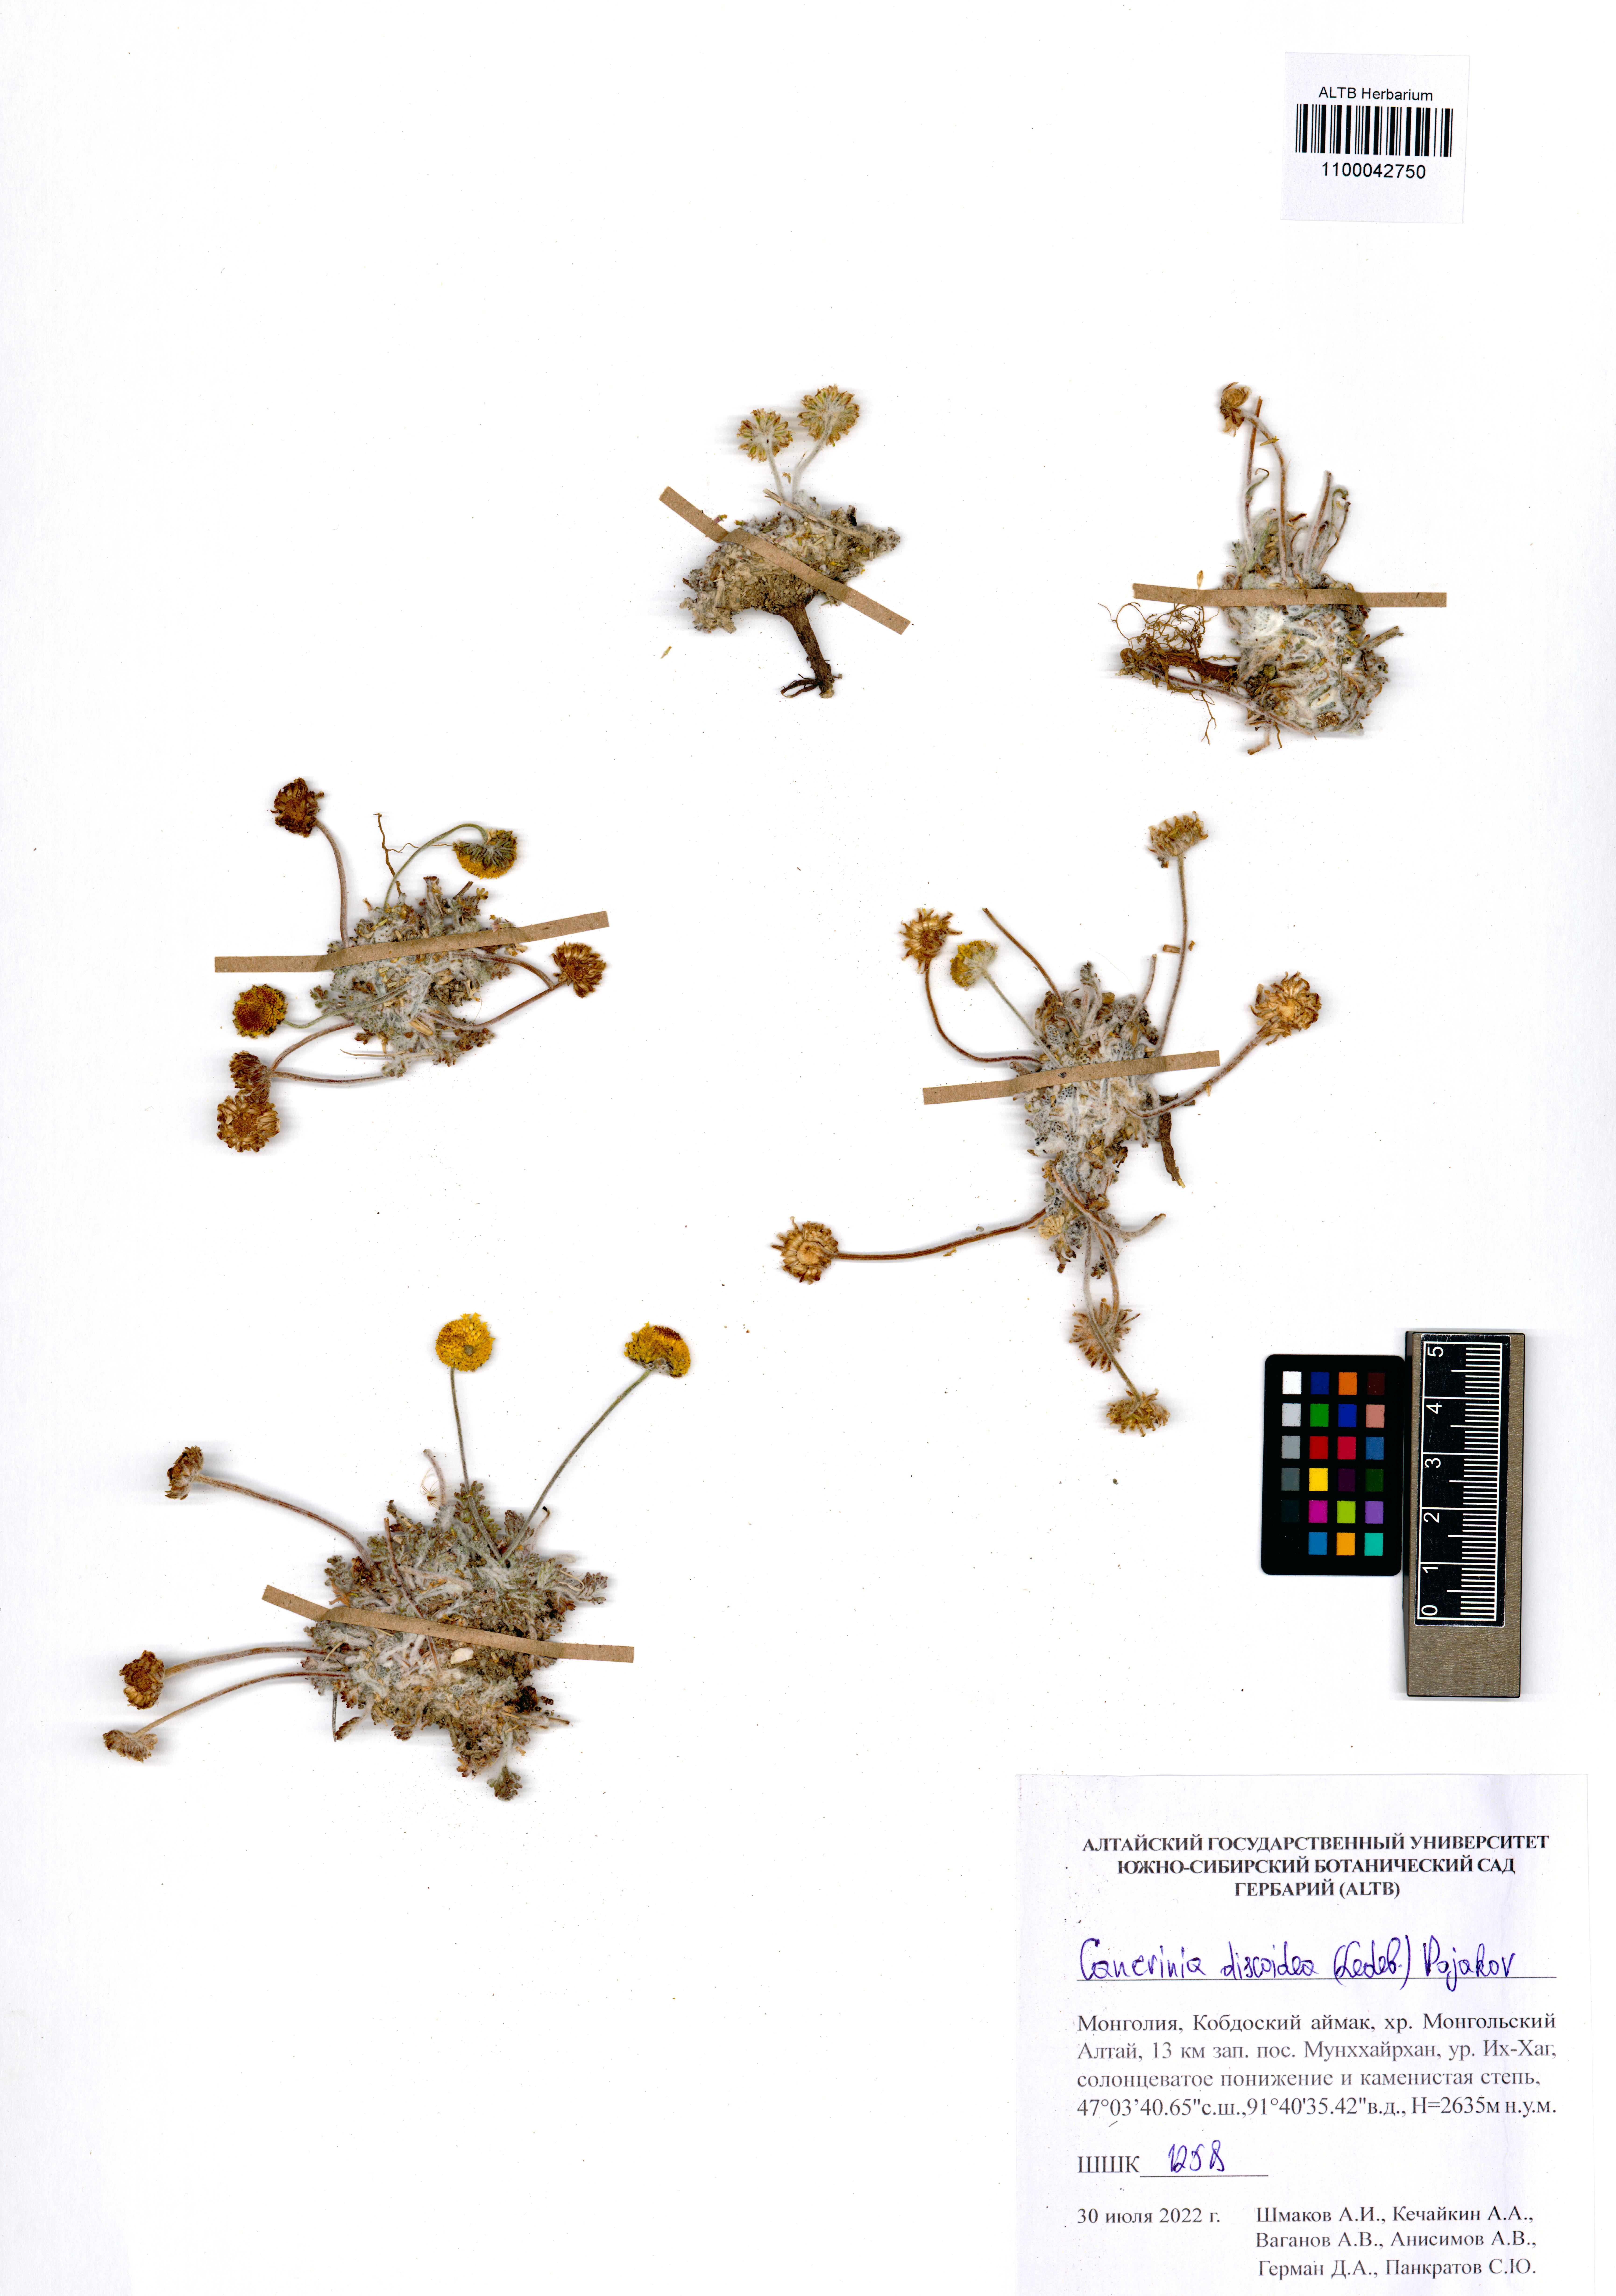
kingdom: Plantae
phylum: Tracheophyta
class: Magnoliopsida
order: Asterales
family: Asteraceae
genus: Cancrinia
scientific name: Cancrinia discoidea
